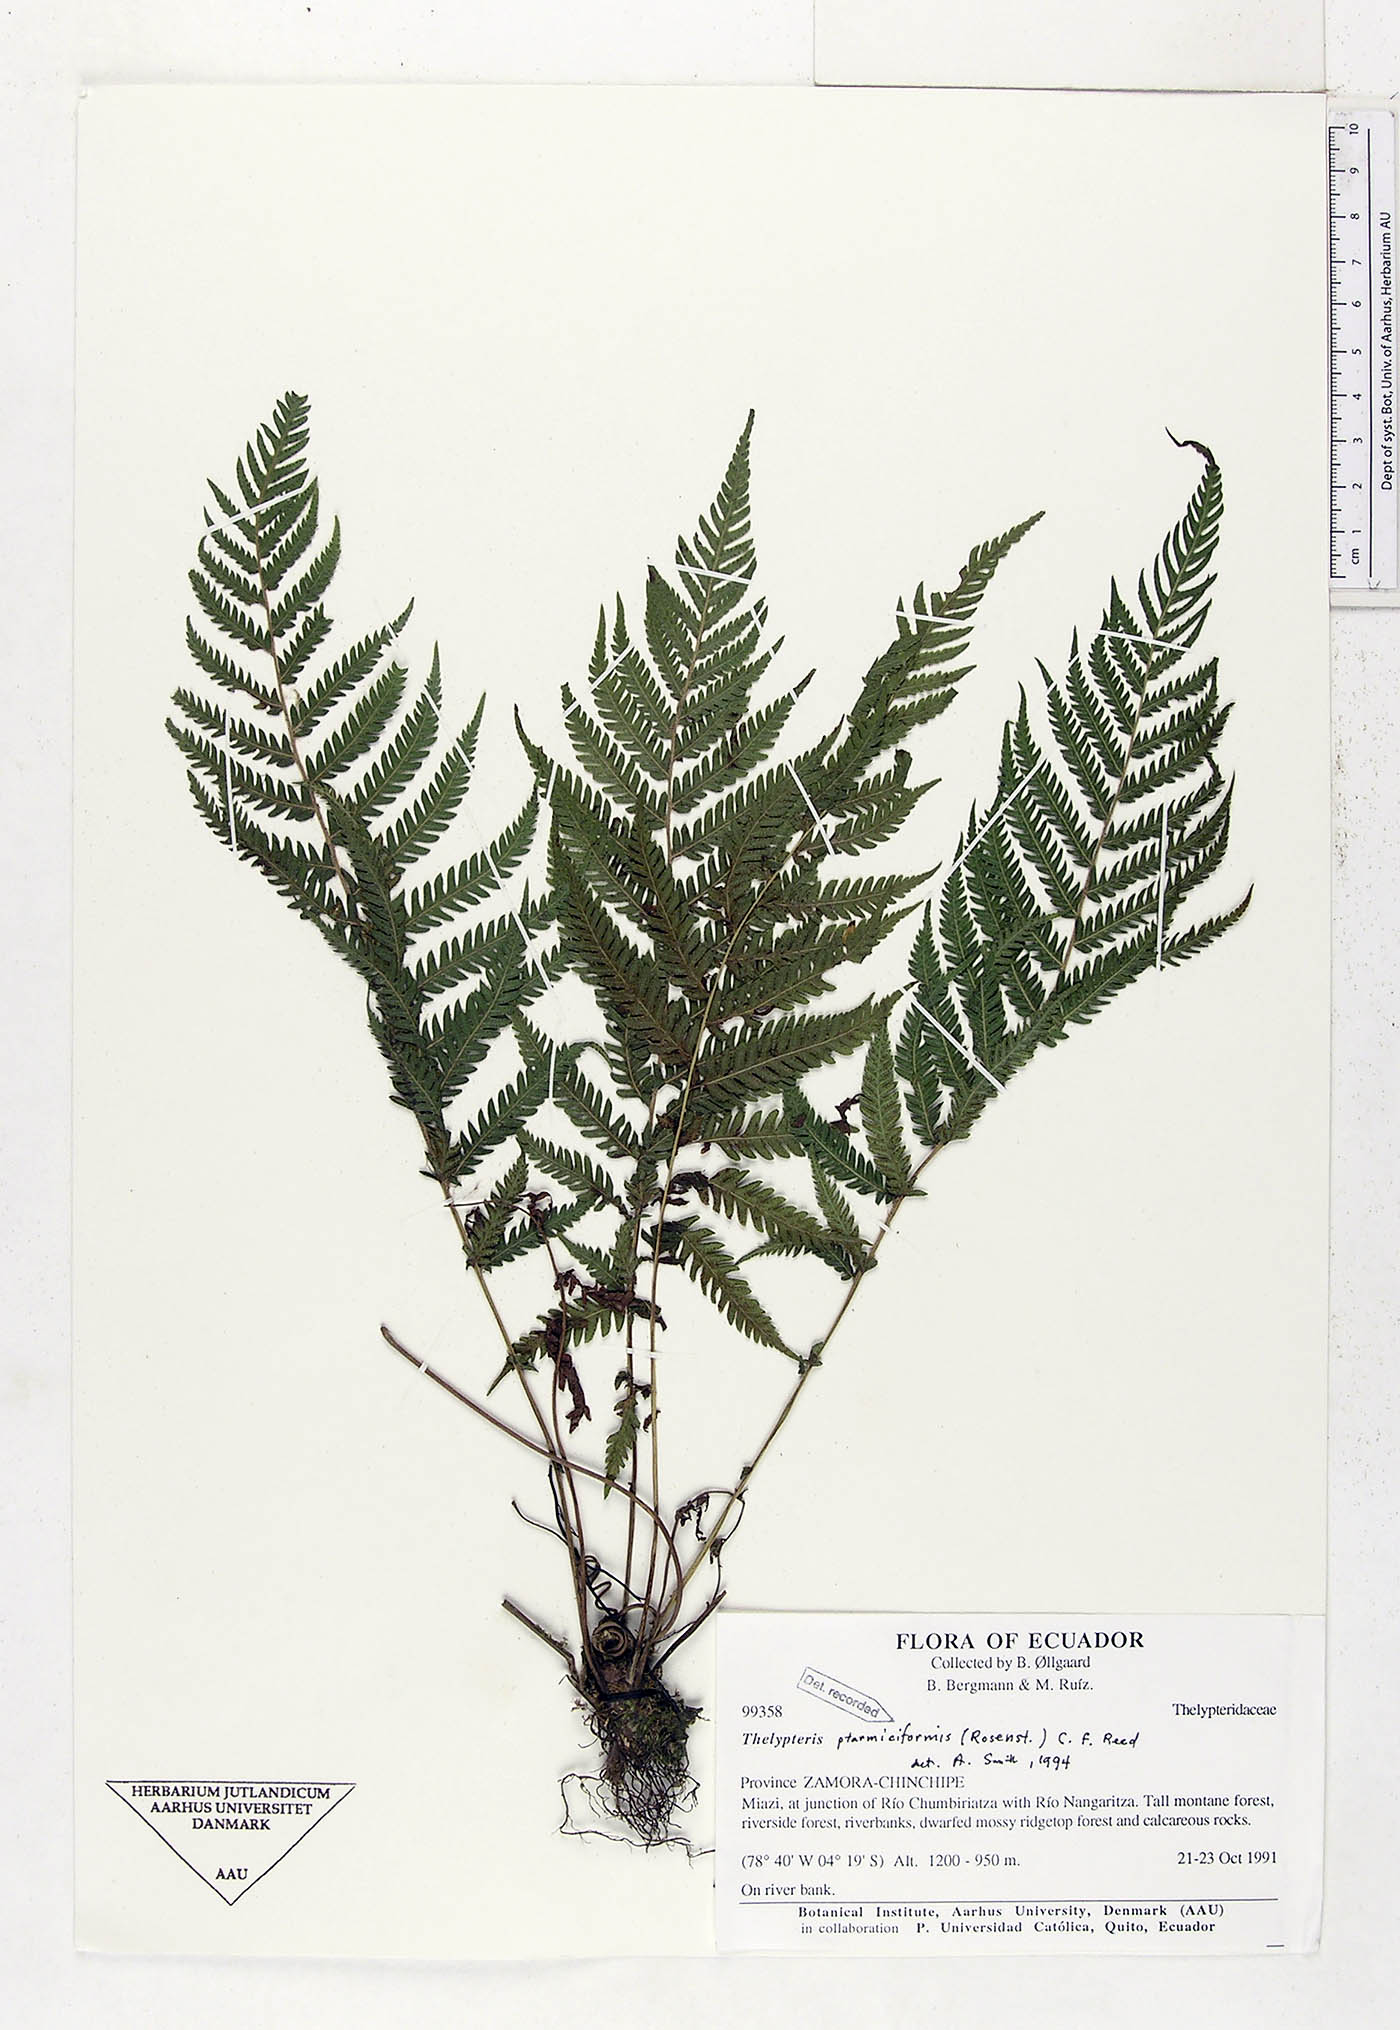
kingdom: Plantae
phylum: Tracheophyta
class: Polypodiopsida
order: Polypodiales
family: Thelypteridaceae
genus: Amauropelta
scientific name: Amauropelta ptarmiciformis
